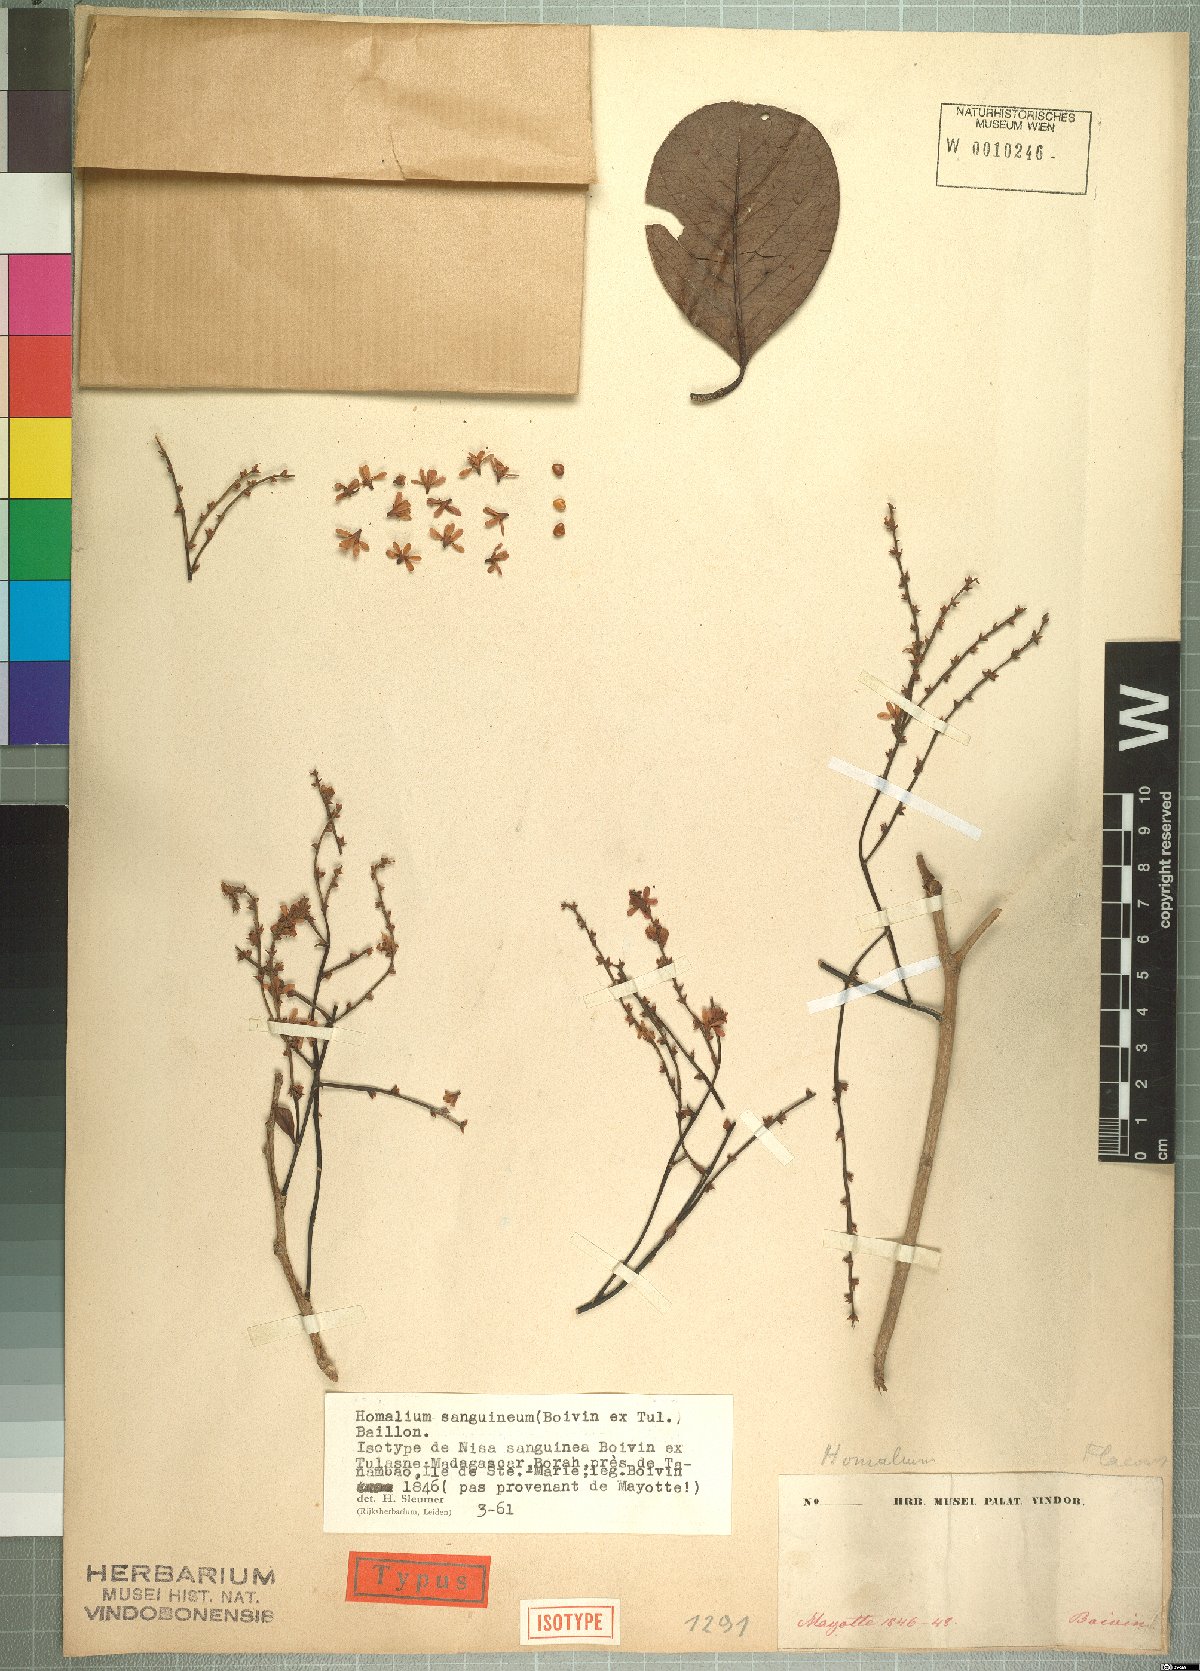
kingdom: Plantae
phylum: Tracheophyta
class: Magnoliopsida
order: Malpighiales
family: Salicaceae
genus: Homalium
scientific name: Homalium sanguineum
